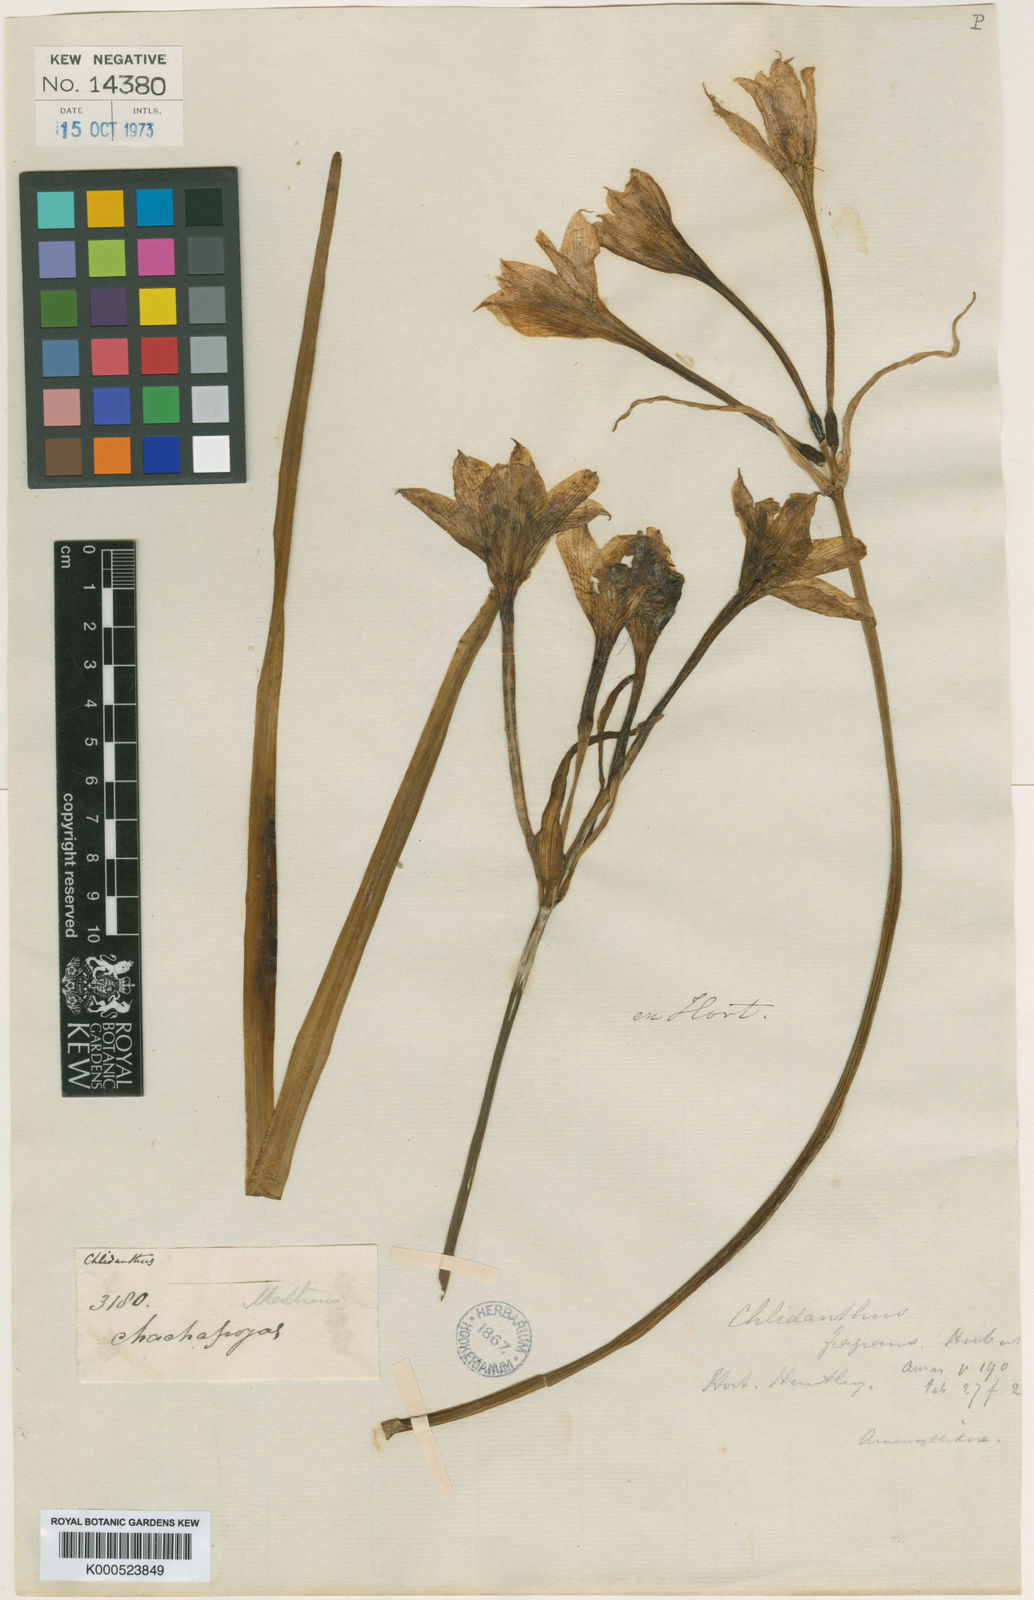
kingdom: Plantae
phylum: Tracheophyta
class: Liliopsida
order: Asparagales
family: Amaryllidaceae
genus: Chlidanthus
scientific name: Chlidanthus fragrans
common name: Perfumed fairy-lily
